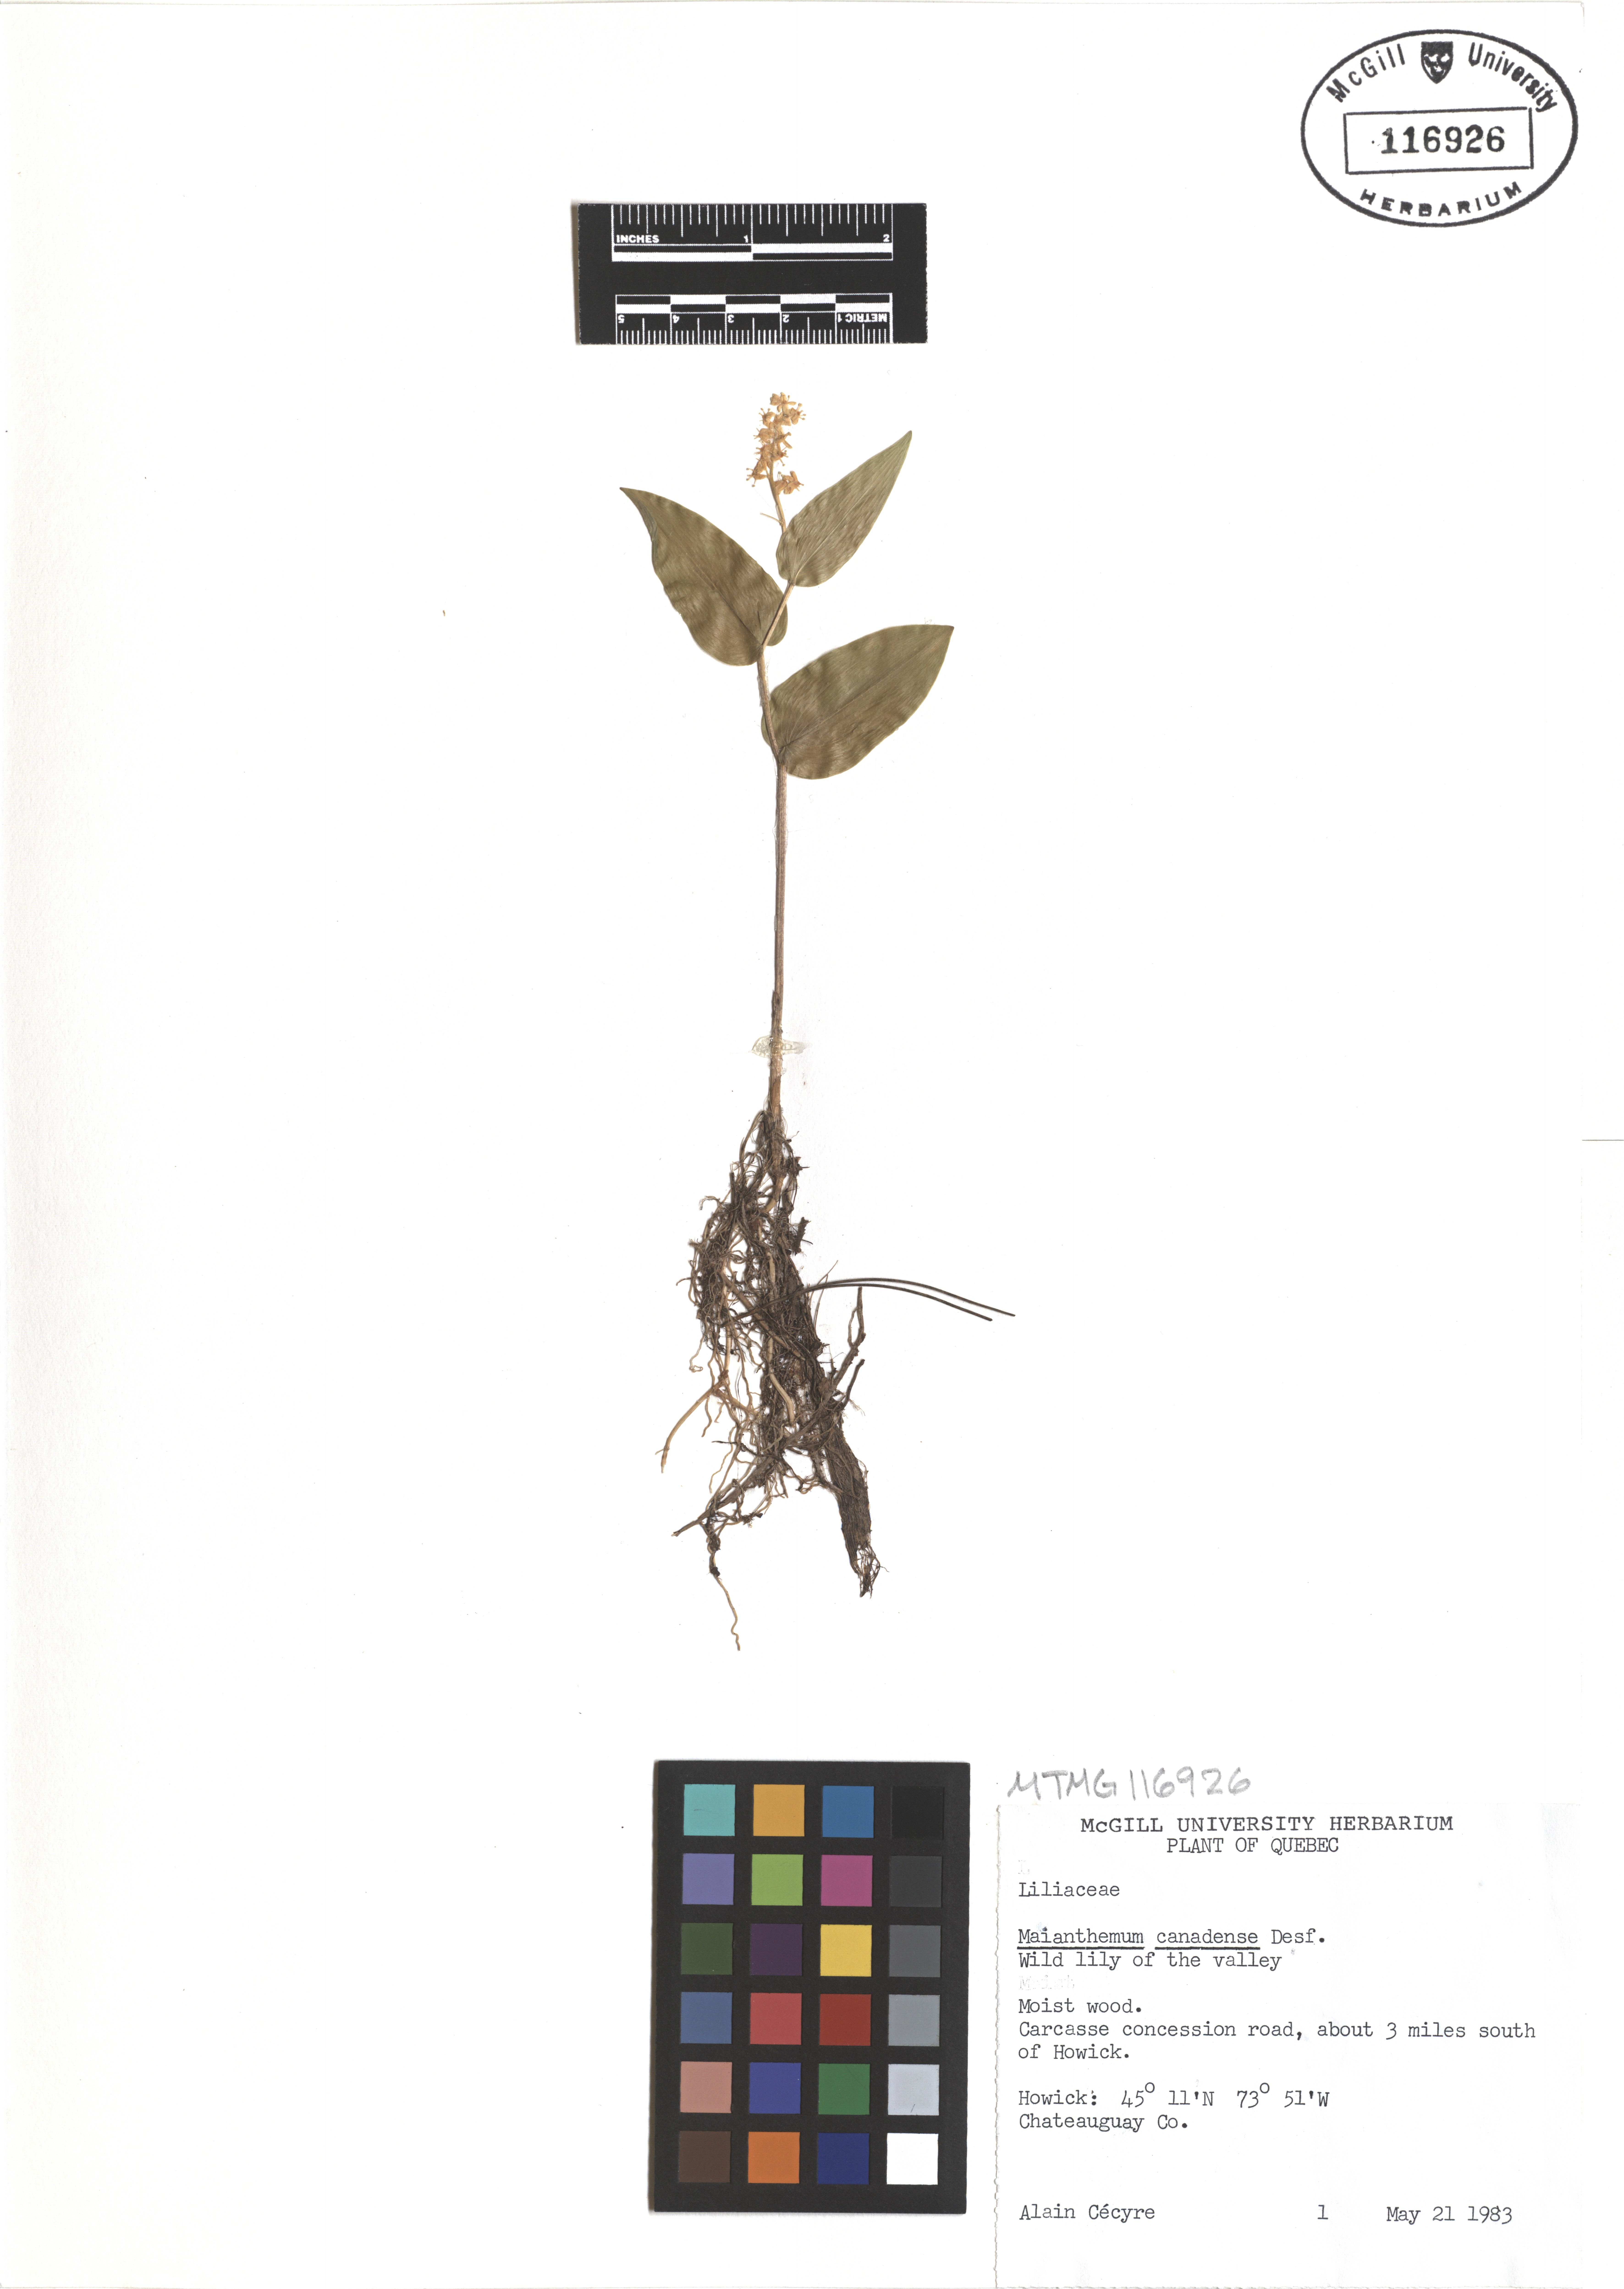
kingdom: Plantae
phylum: Tracheophyta
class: Liliopsida
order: Asparagales
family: Asparagaceae
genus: Maianthemum
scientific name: Maianthemum canadense
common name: False lily-of-the-valley
